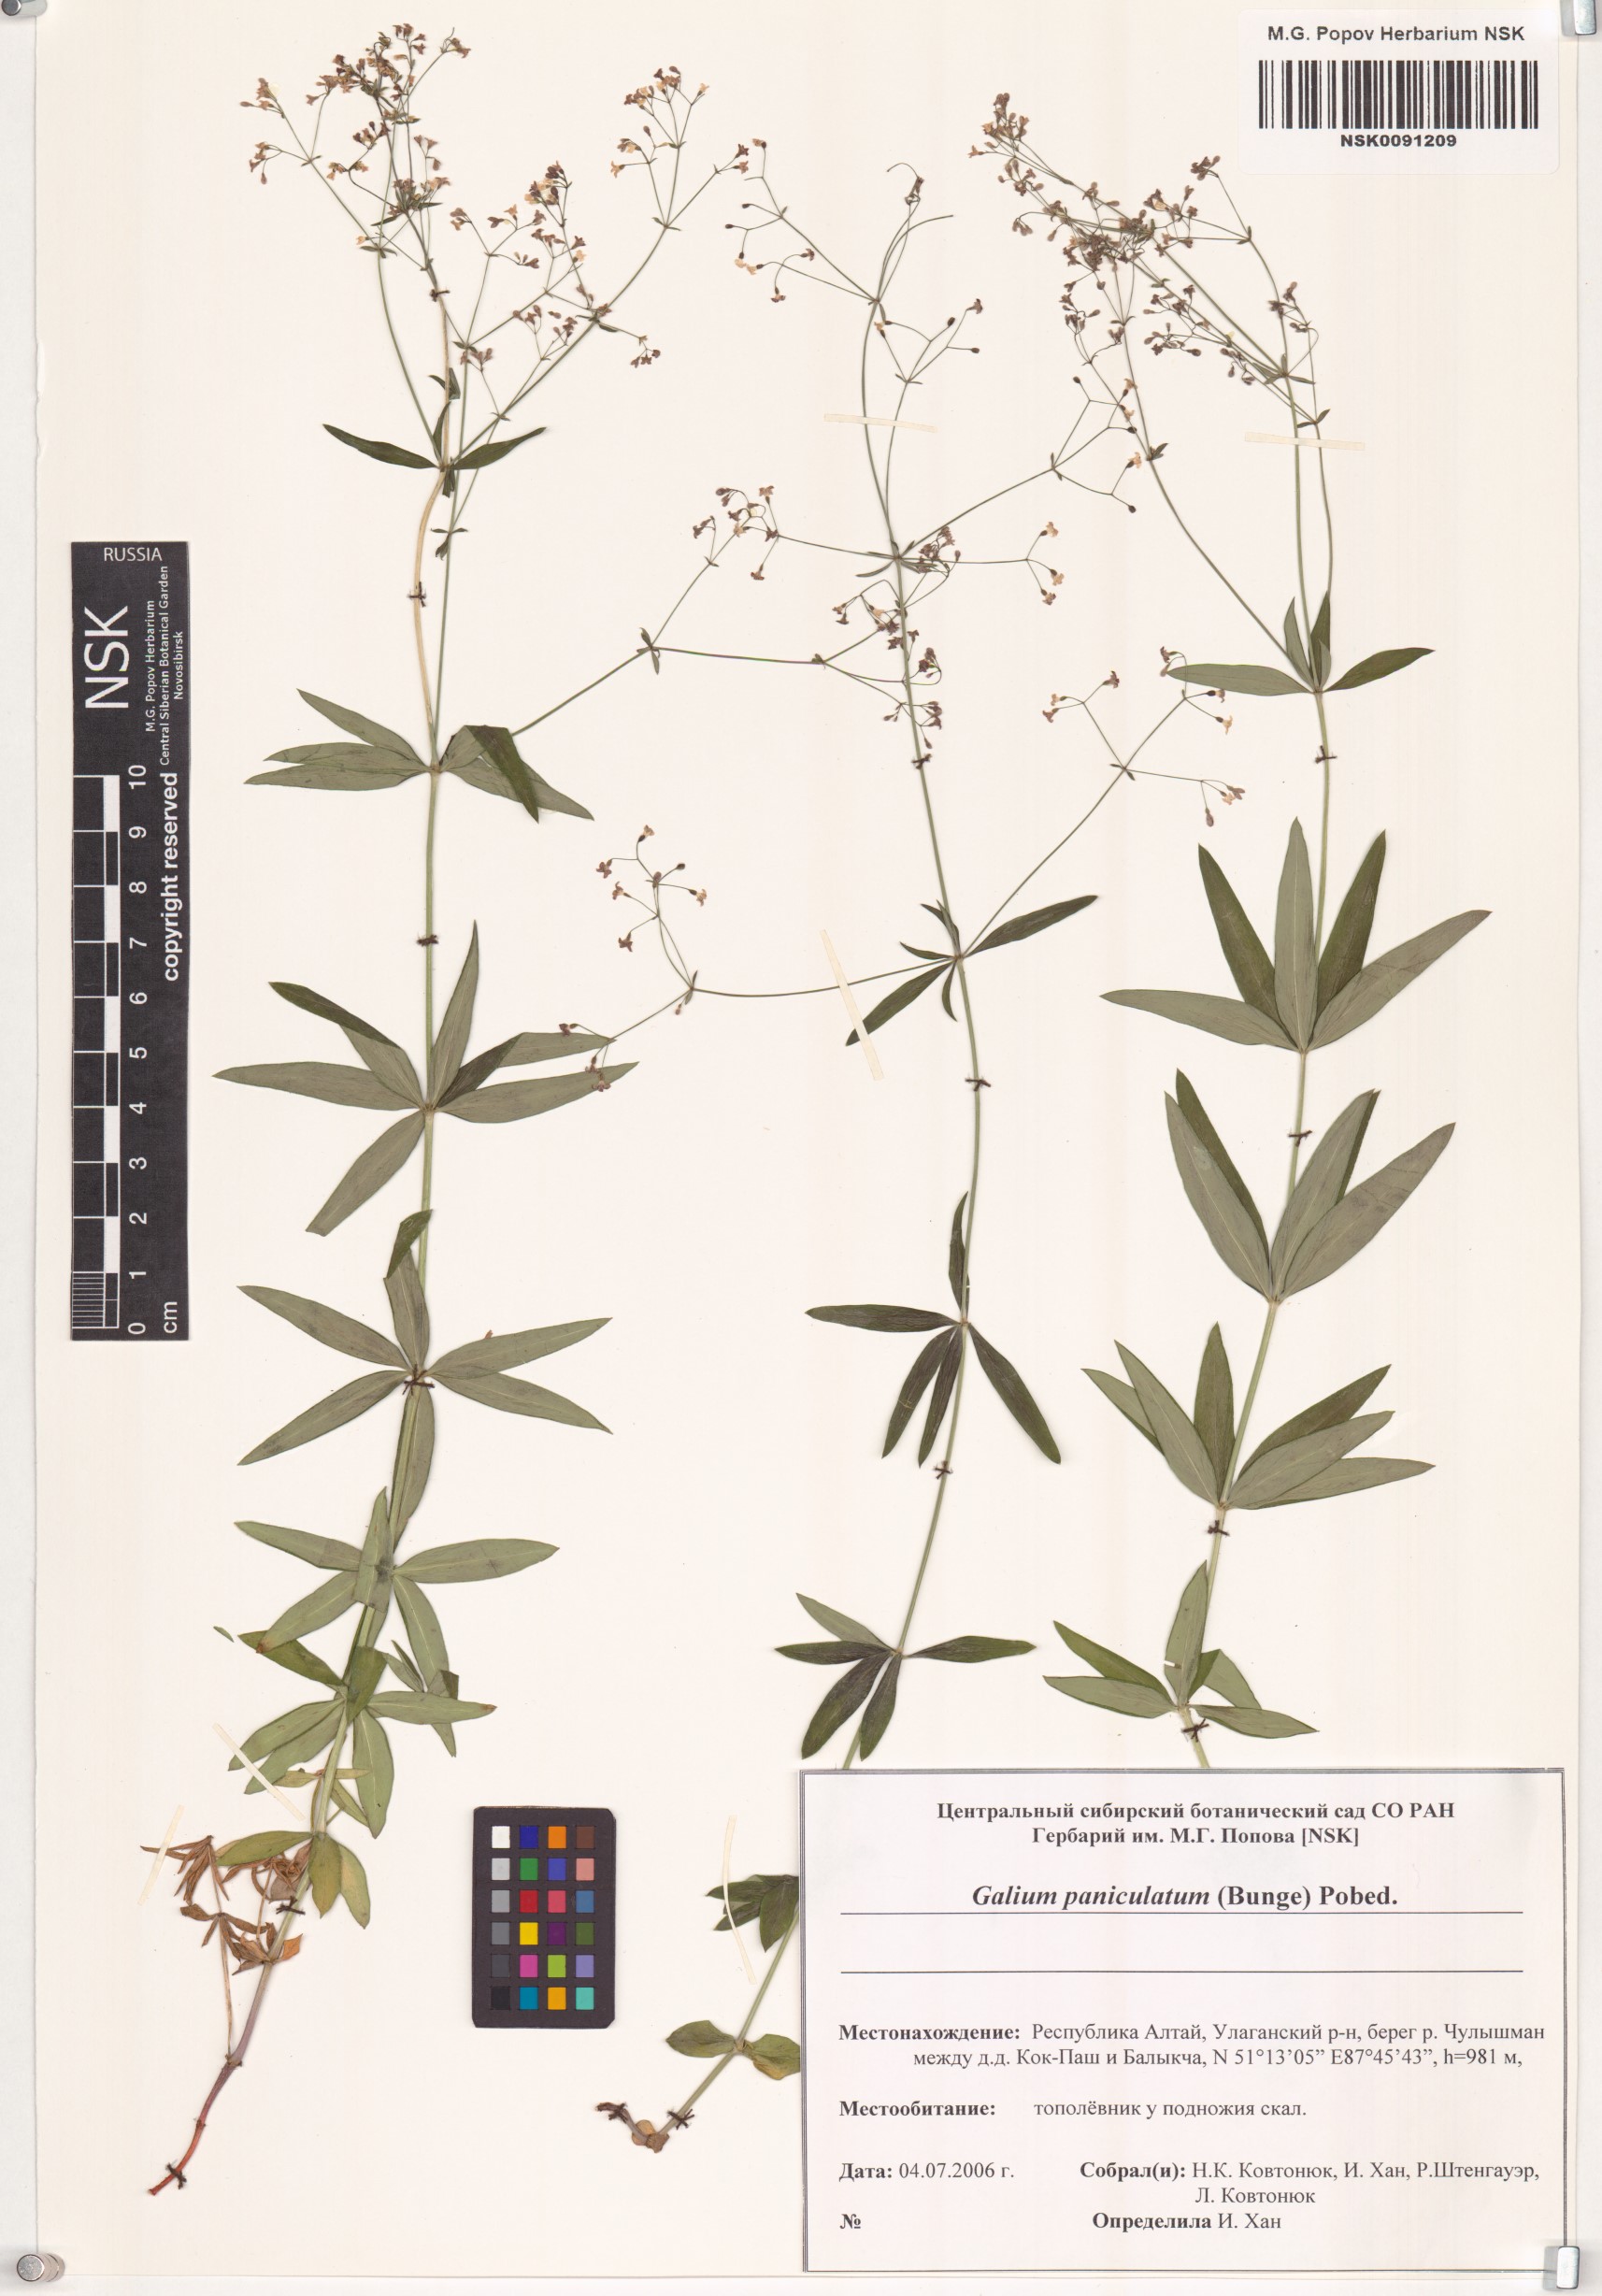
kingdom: Plantae
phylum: Tracheophyta
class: Magnoliopsida
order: Gentianales
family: Rubiaceae
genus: Galium
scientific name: Galium paniculatum
